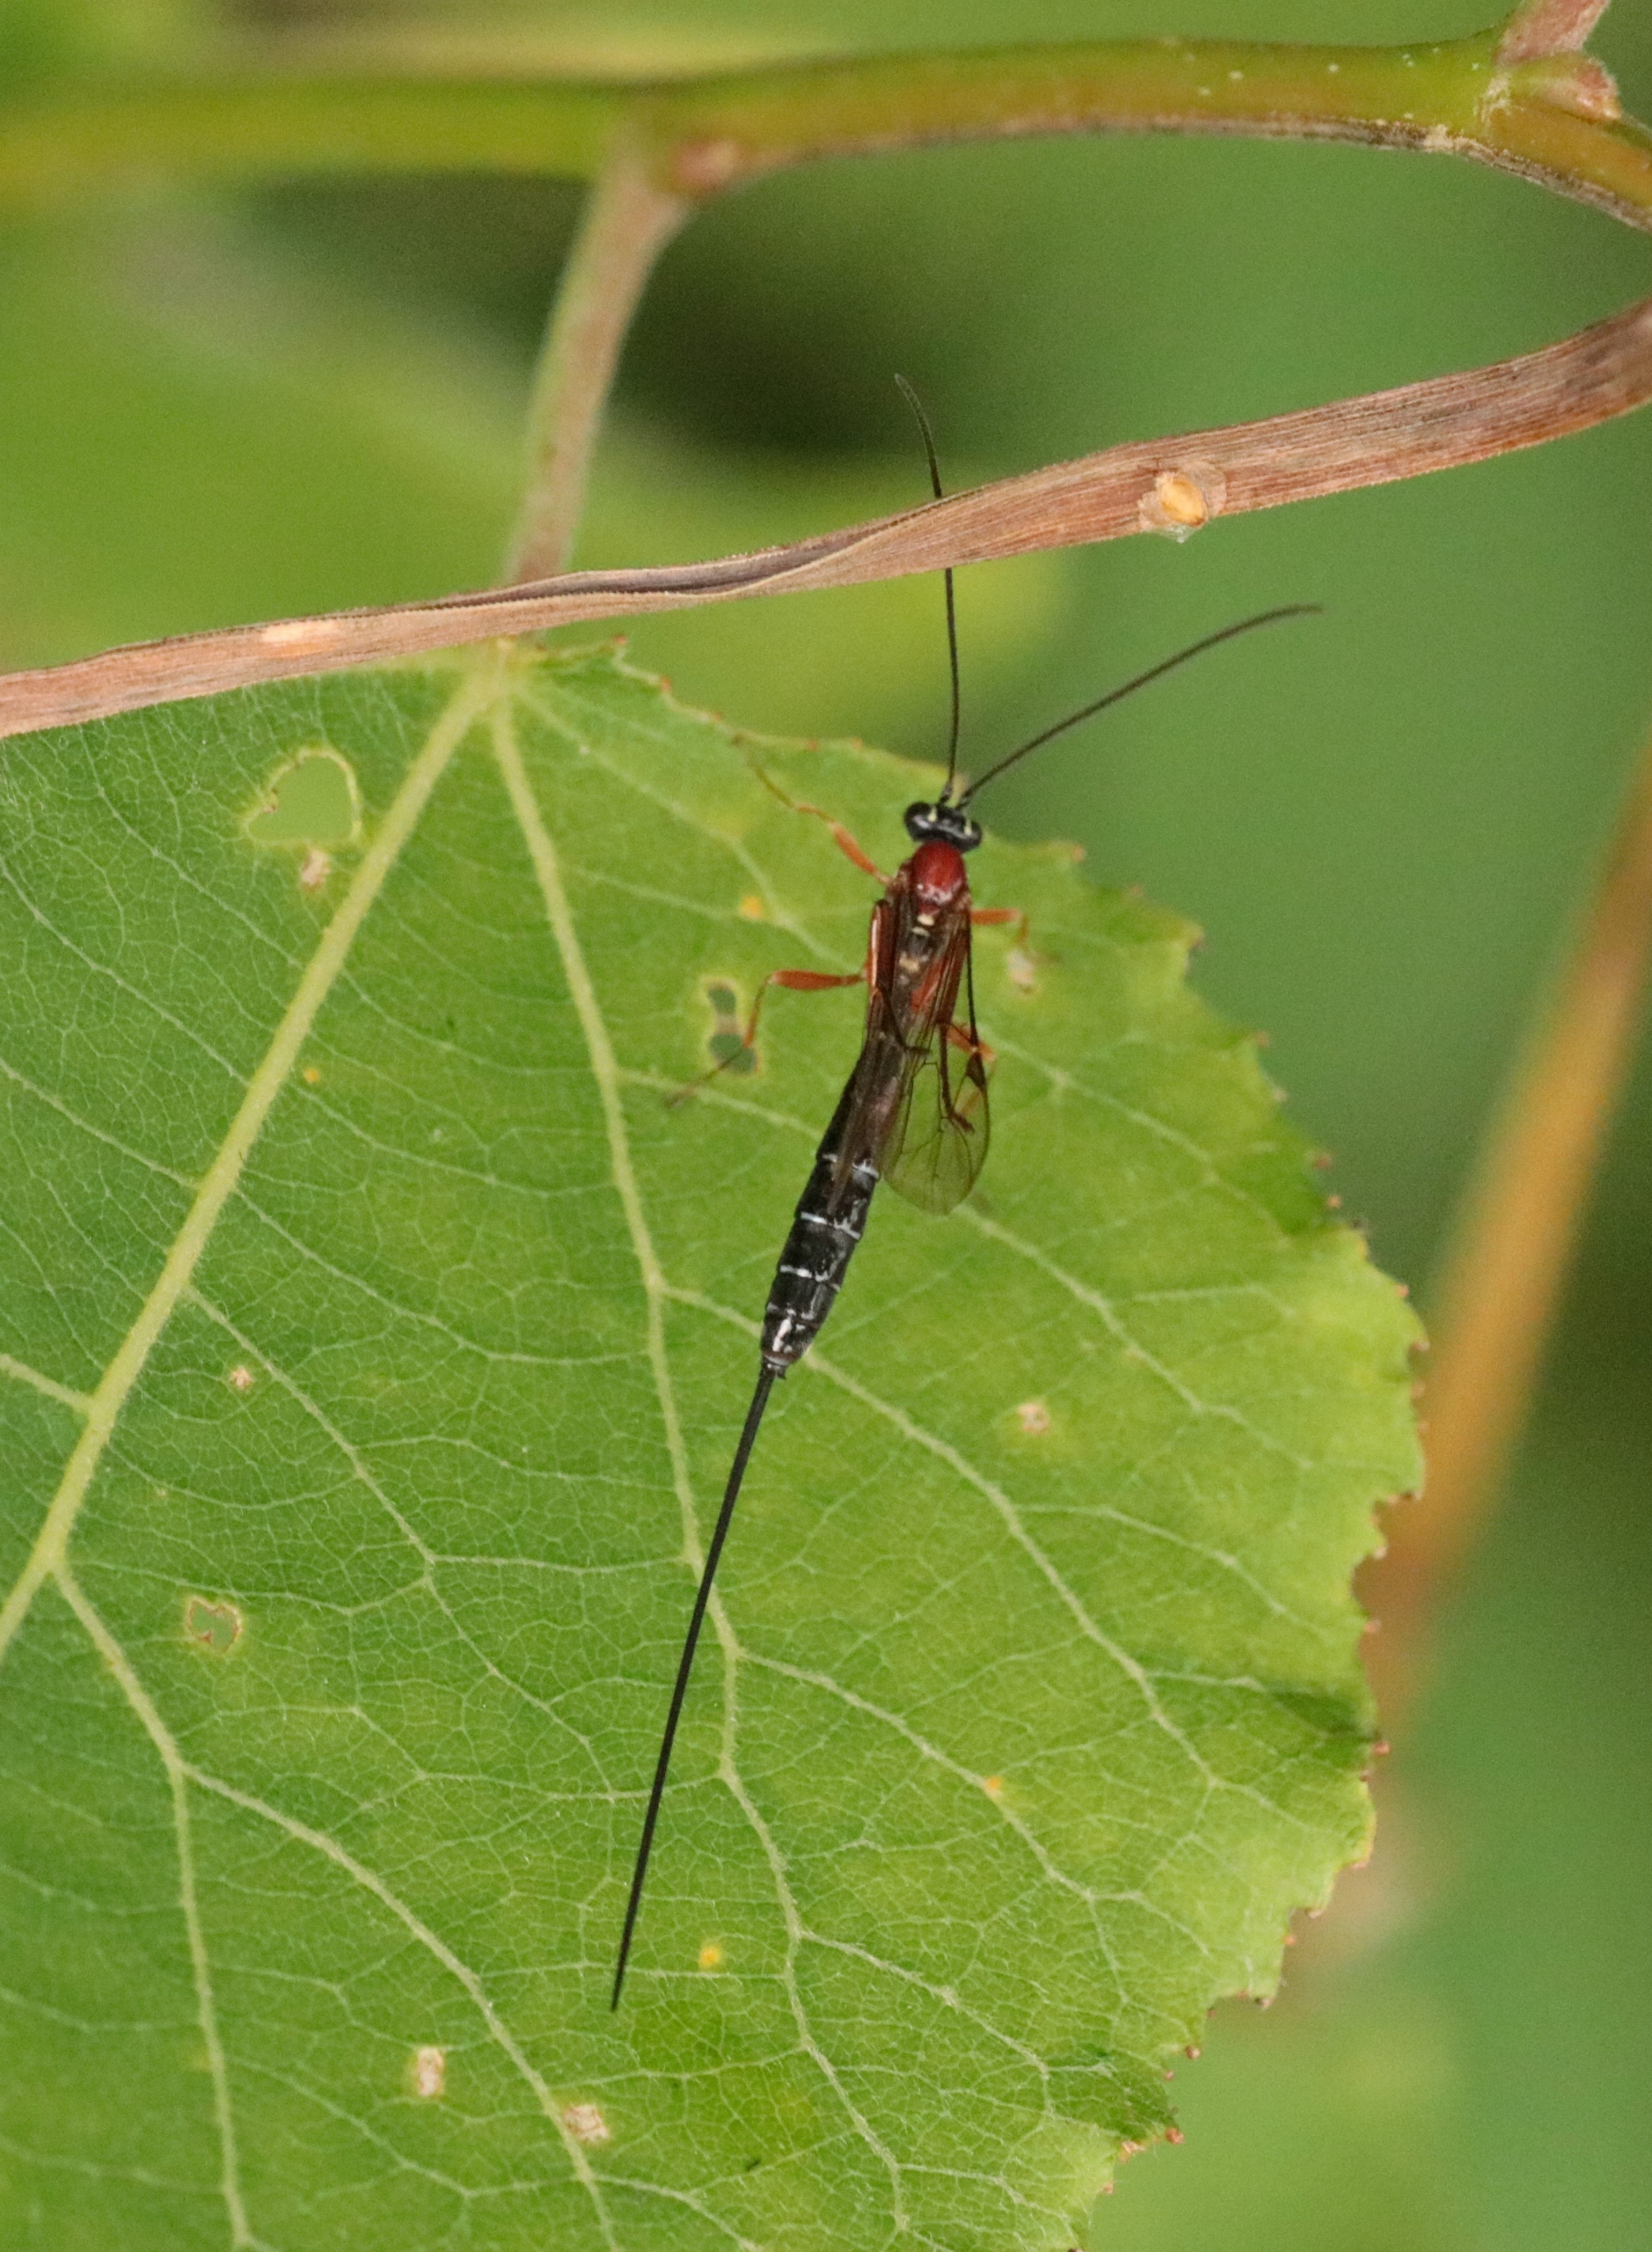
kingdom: Animalia
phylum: Arthropoda
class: Insecta
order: Hymenoptera
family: Ichneumonidae
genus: Perithous
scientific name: Perithous scurra
